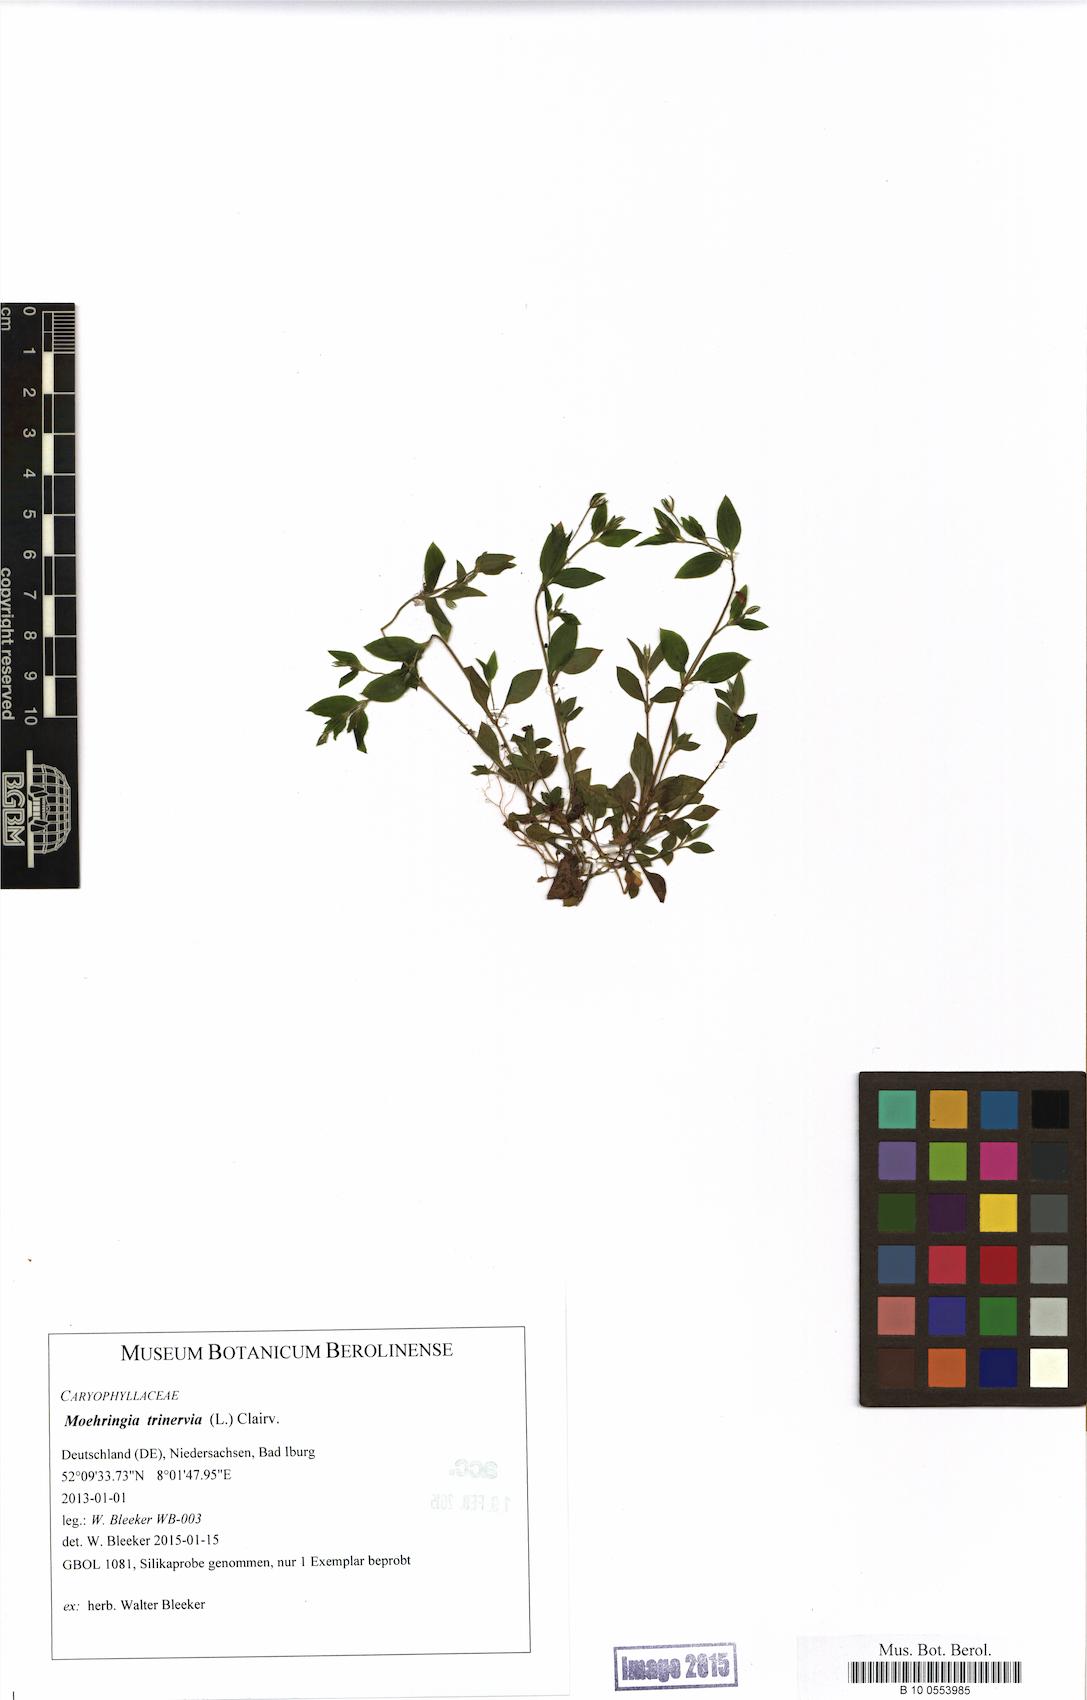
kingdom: Plantae
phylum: Tracheophyta
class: Magnoliopsida
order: Caryophyllales
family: Caryophyllaceae
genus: Moehringia
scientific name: Moehringia trinervia
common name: Three-nerved sandwort
